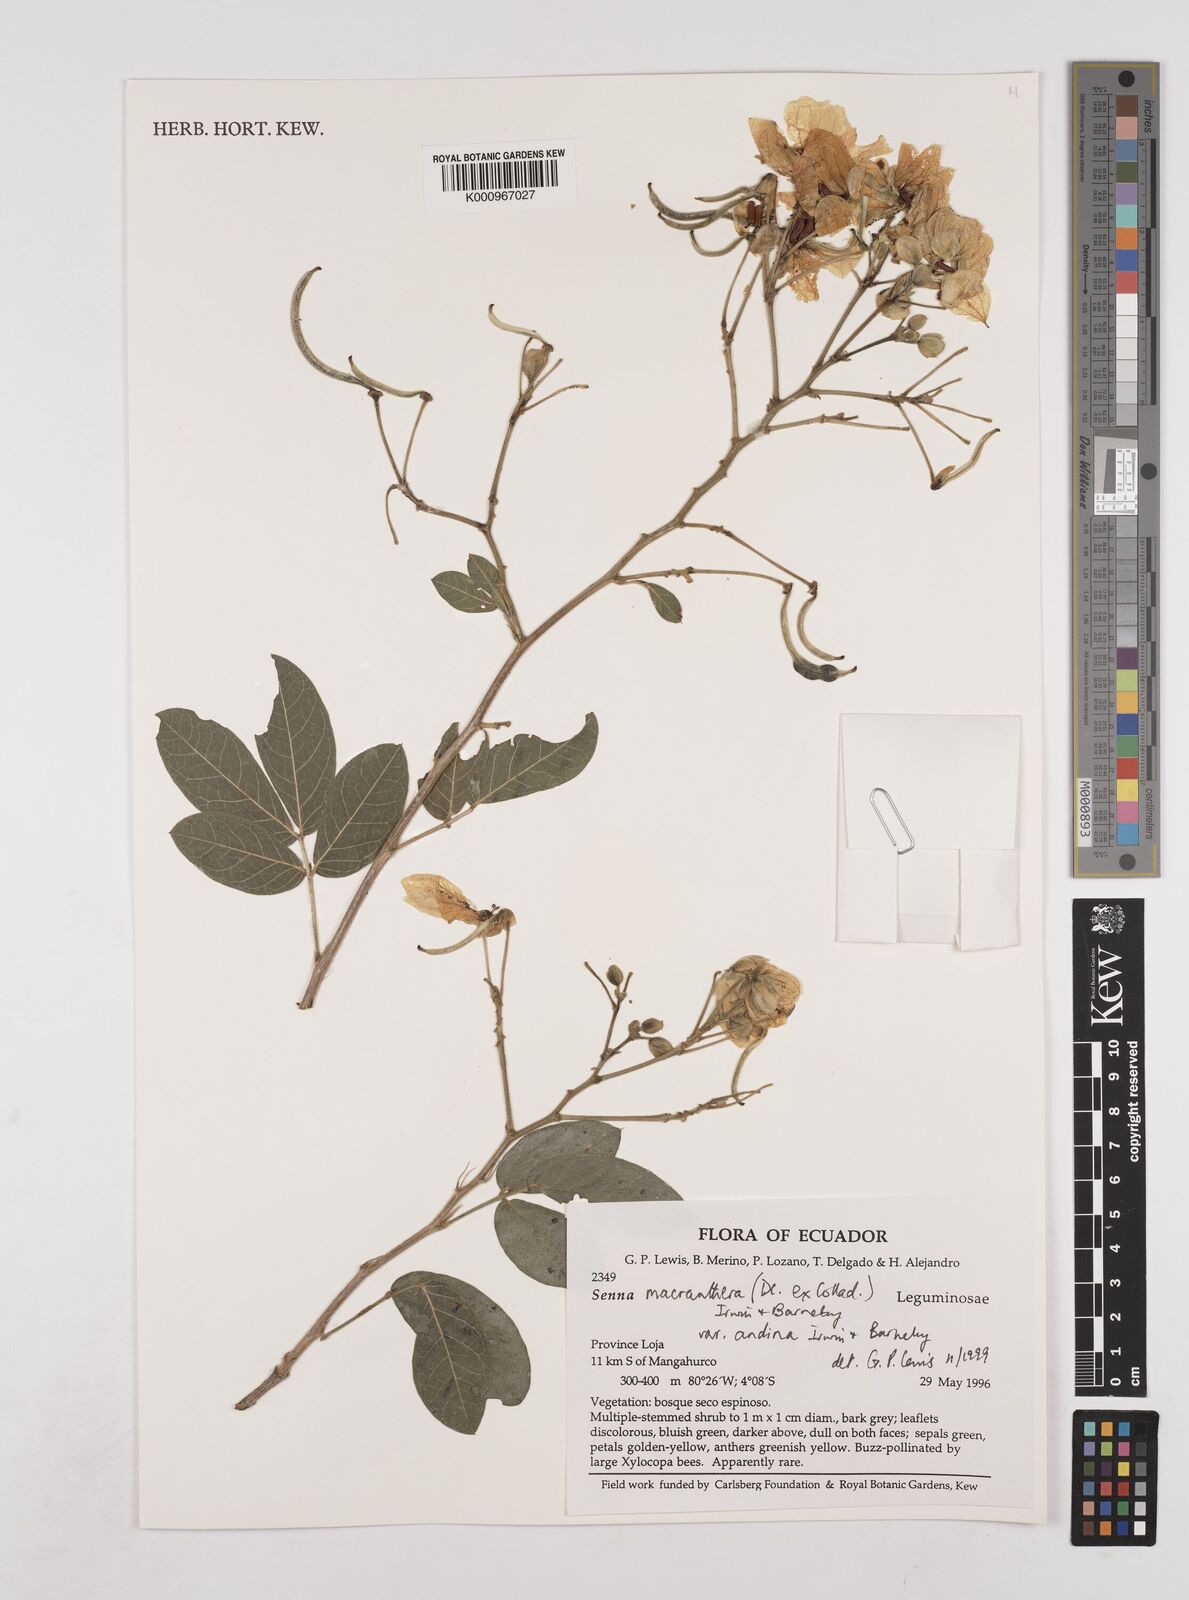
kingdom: Plantae
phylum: Tracheophyta
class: Magnoliopsida
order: Fabales
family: Fabaceae
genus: Senna
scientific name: Senna macranthera
